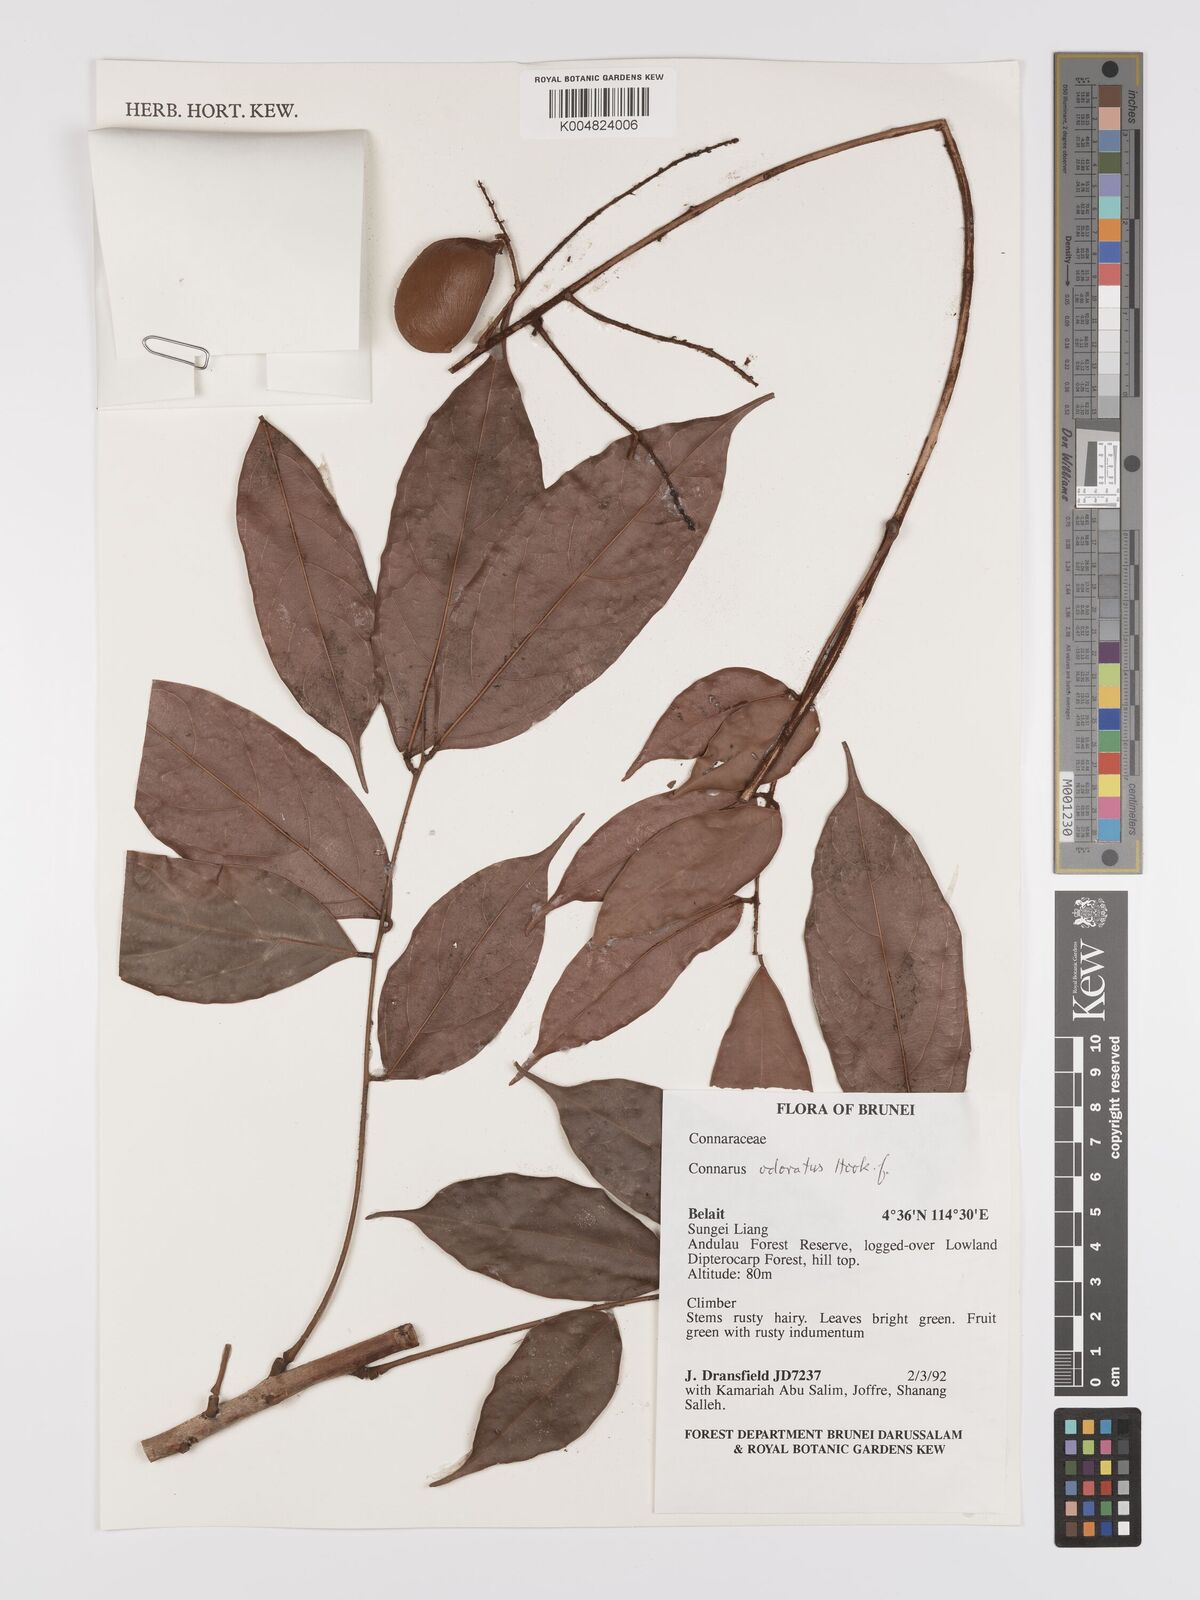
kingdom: Plantae
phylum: Tracheophyta
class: Magnoliopsida
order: Oxalidales
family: Connaraceae
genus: Connarus
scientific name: Connarus odoratus
